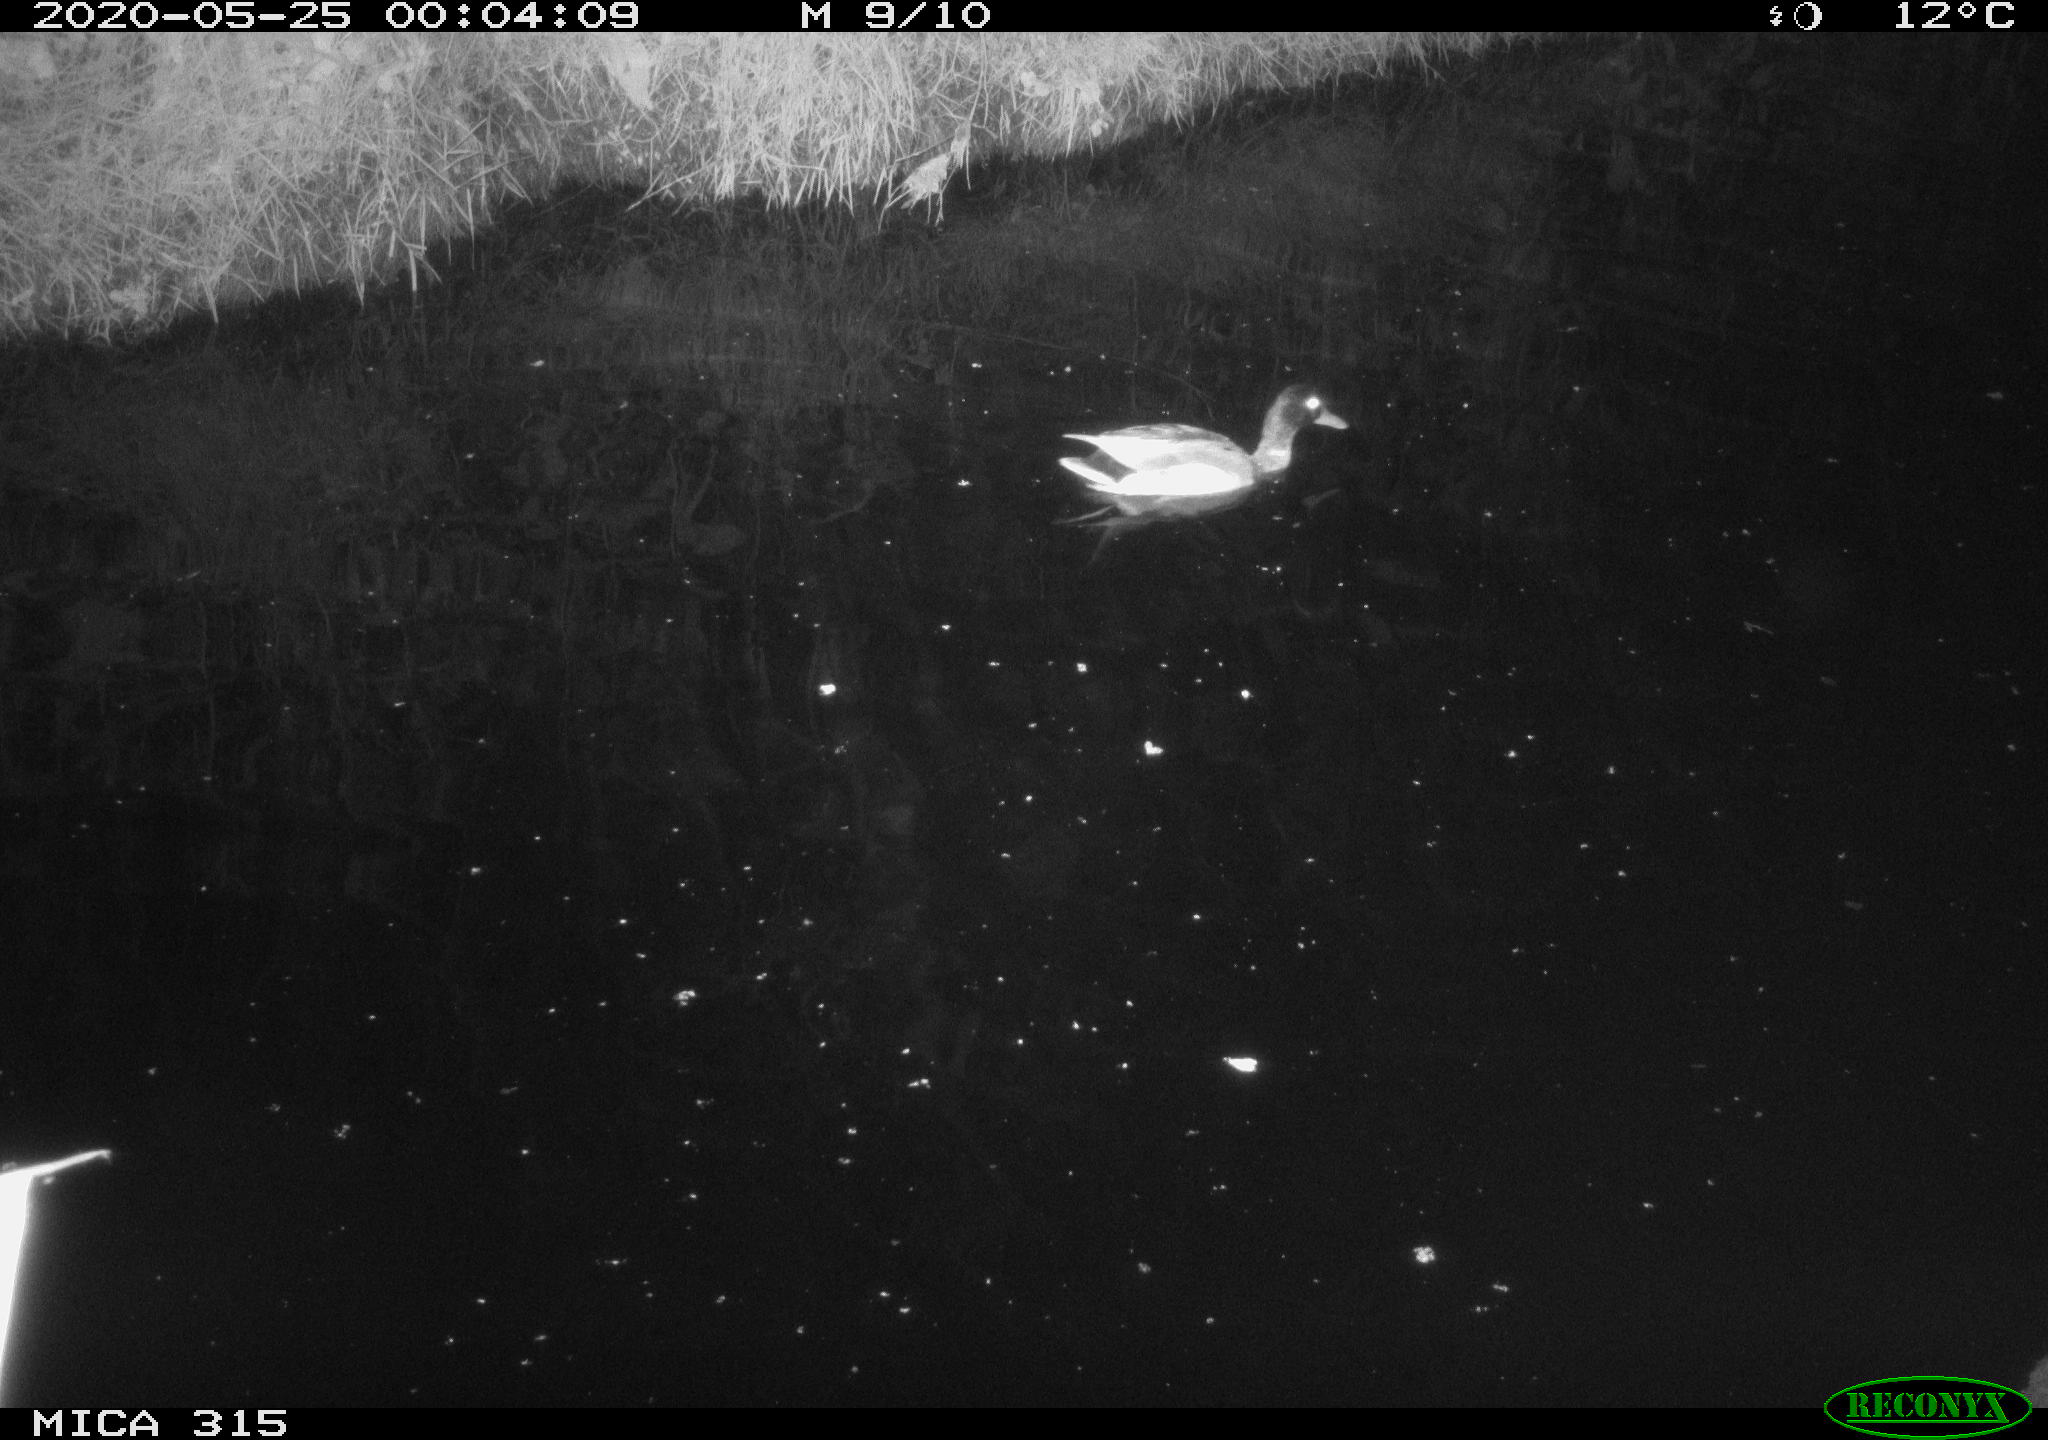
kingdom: Animalia
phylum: Chordata
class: Aves
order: Anseriformes
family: Anatidae
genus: Anas
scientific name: Anas platyrhynchos
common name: Mallard
